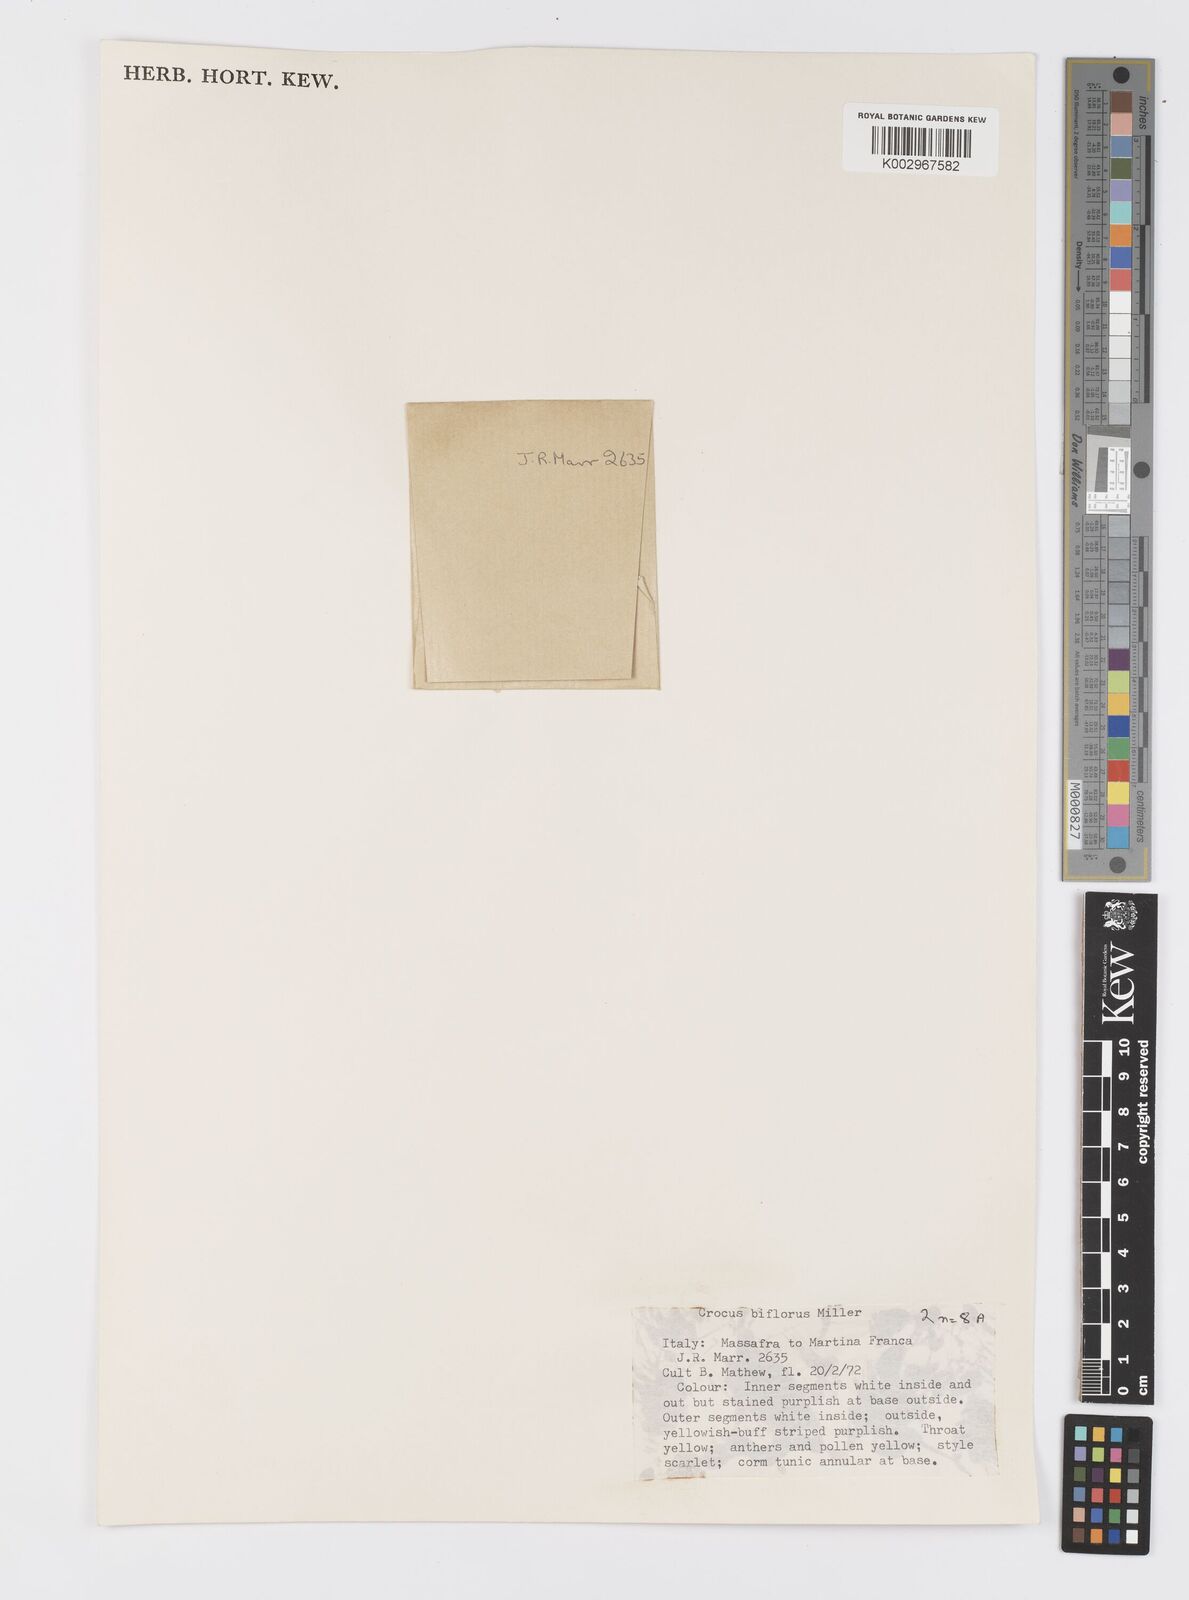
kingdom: Plantae
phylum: Tracheophyta
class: Liliopsida
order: Asparagales
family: Iridaceae
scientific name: Iridaceae
